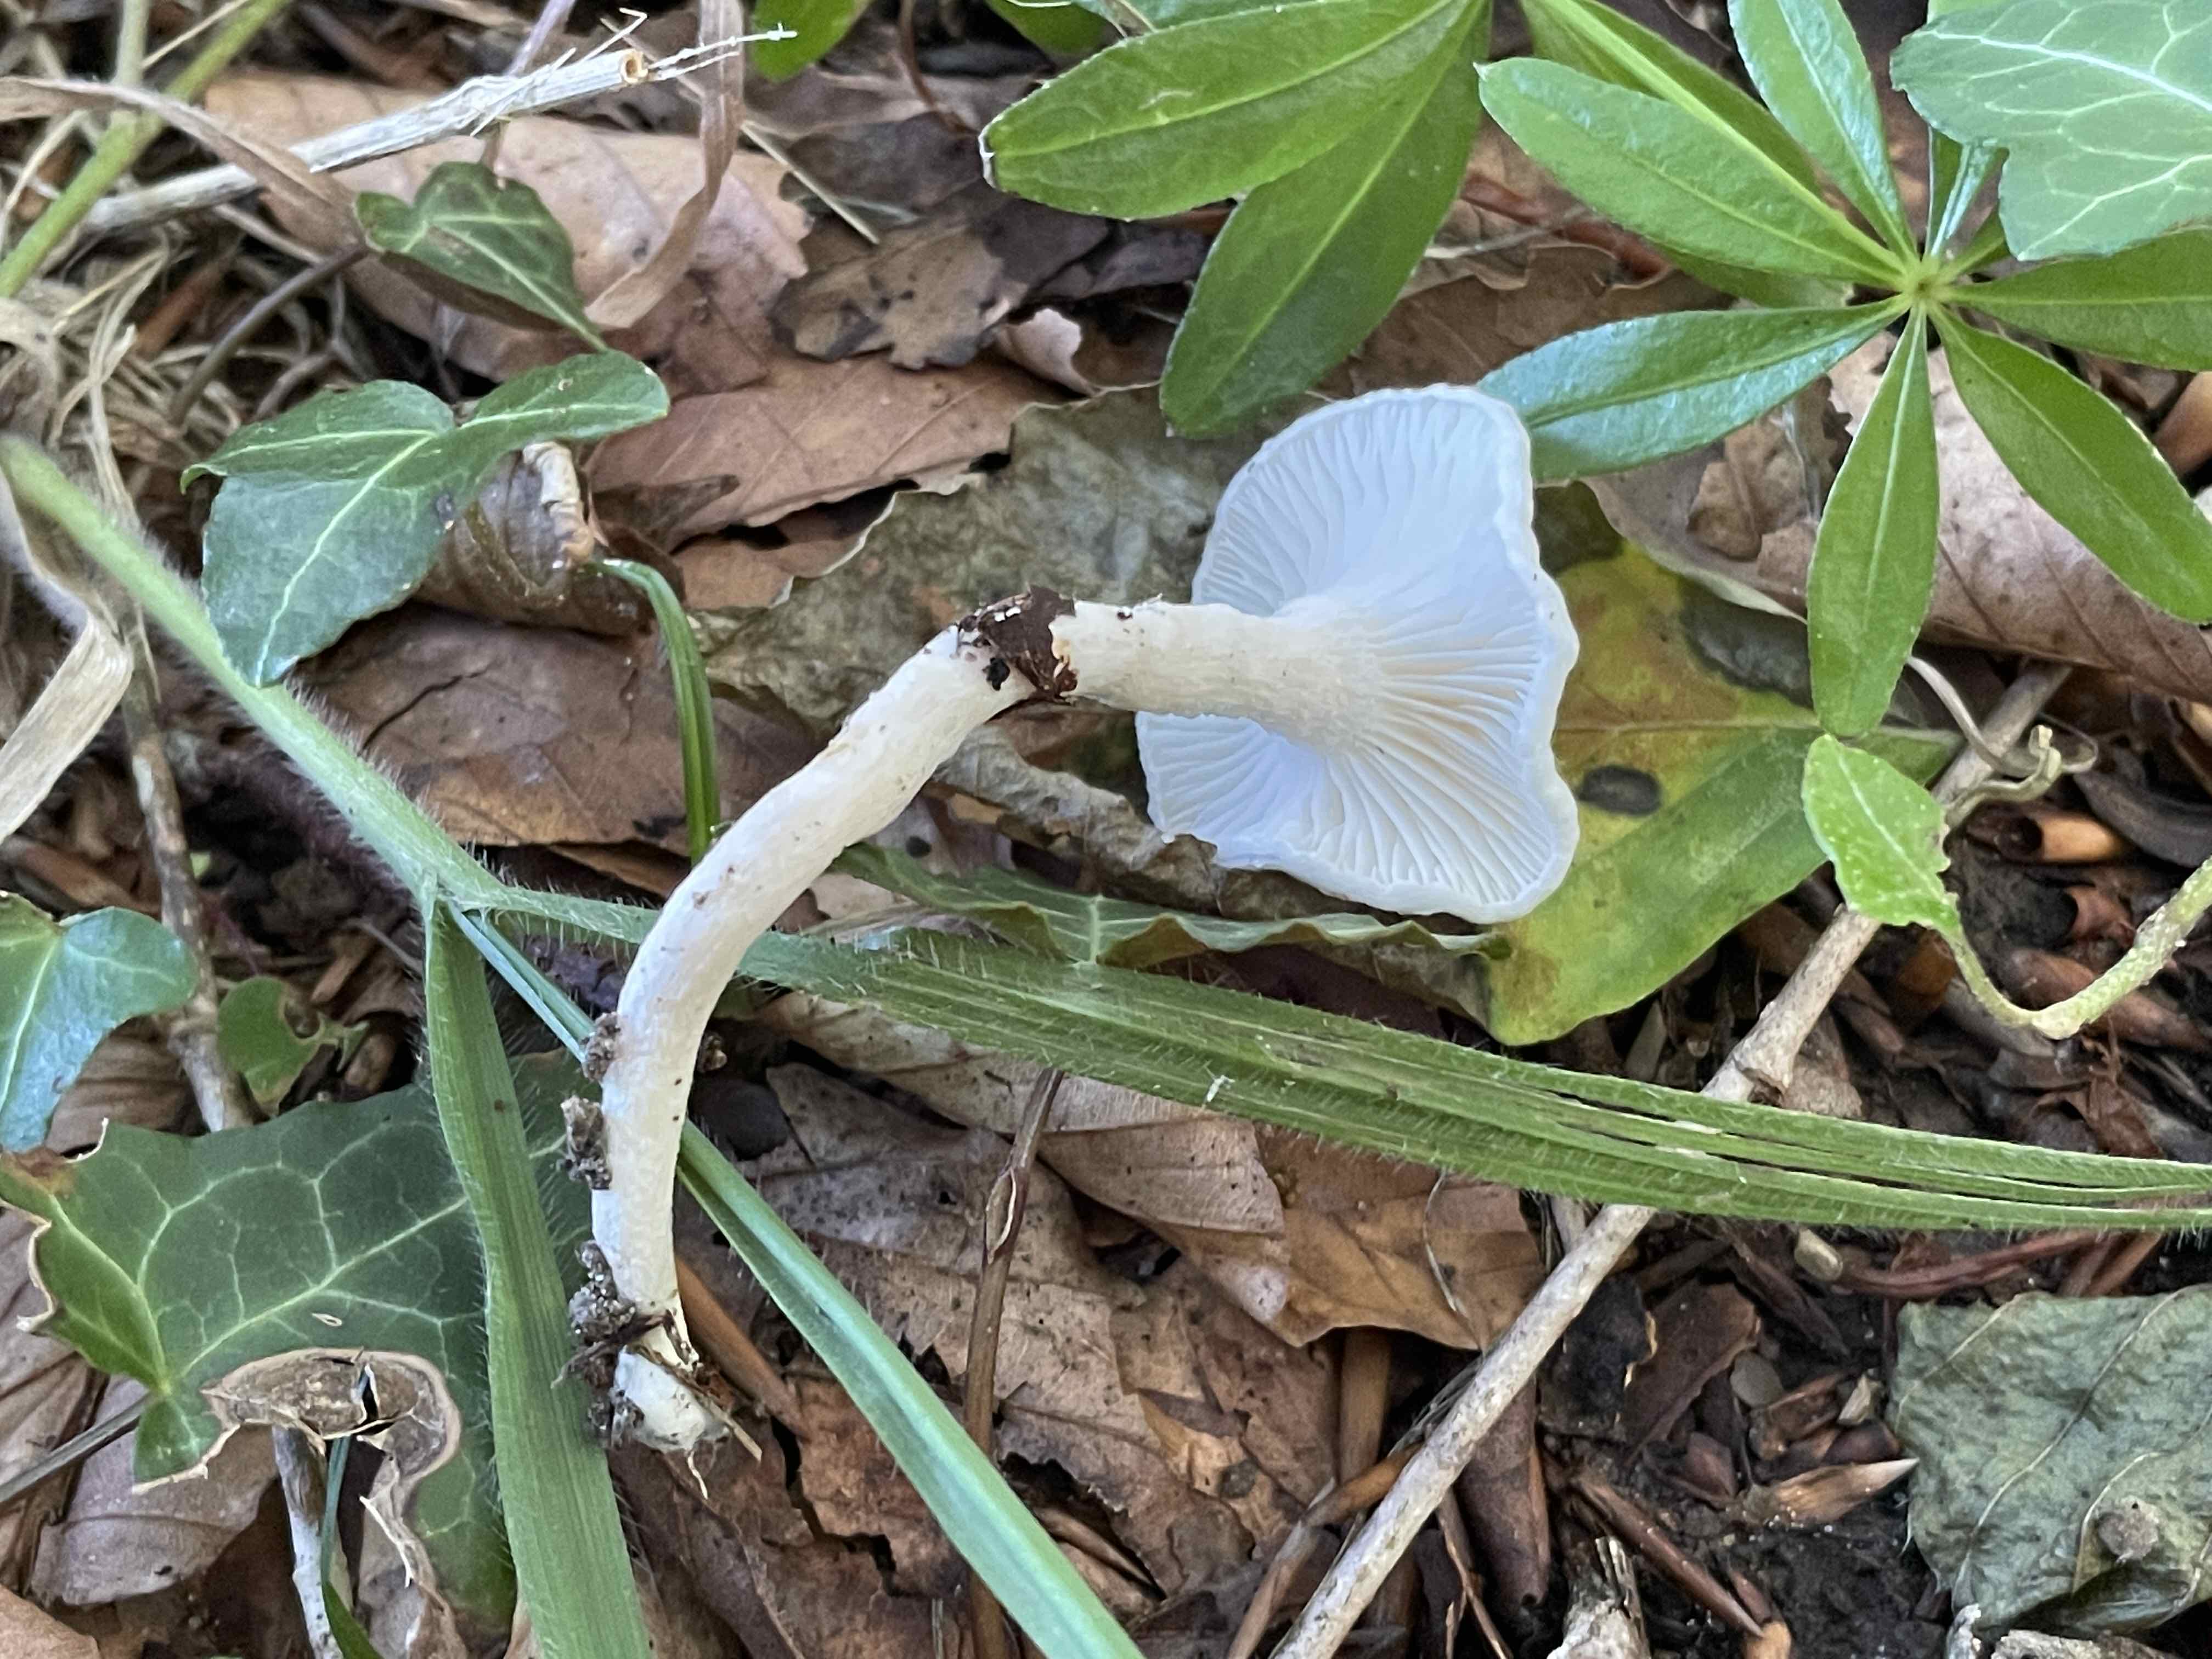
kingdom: Fungi
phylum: Basidiomycota
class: Agaricomycetes
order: Agaricales
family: Hygrophoraceae
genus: Hygrophorus
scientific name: Hygrophorus eburneus
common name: elfenbens-sneglehat
